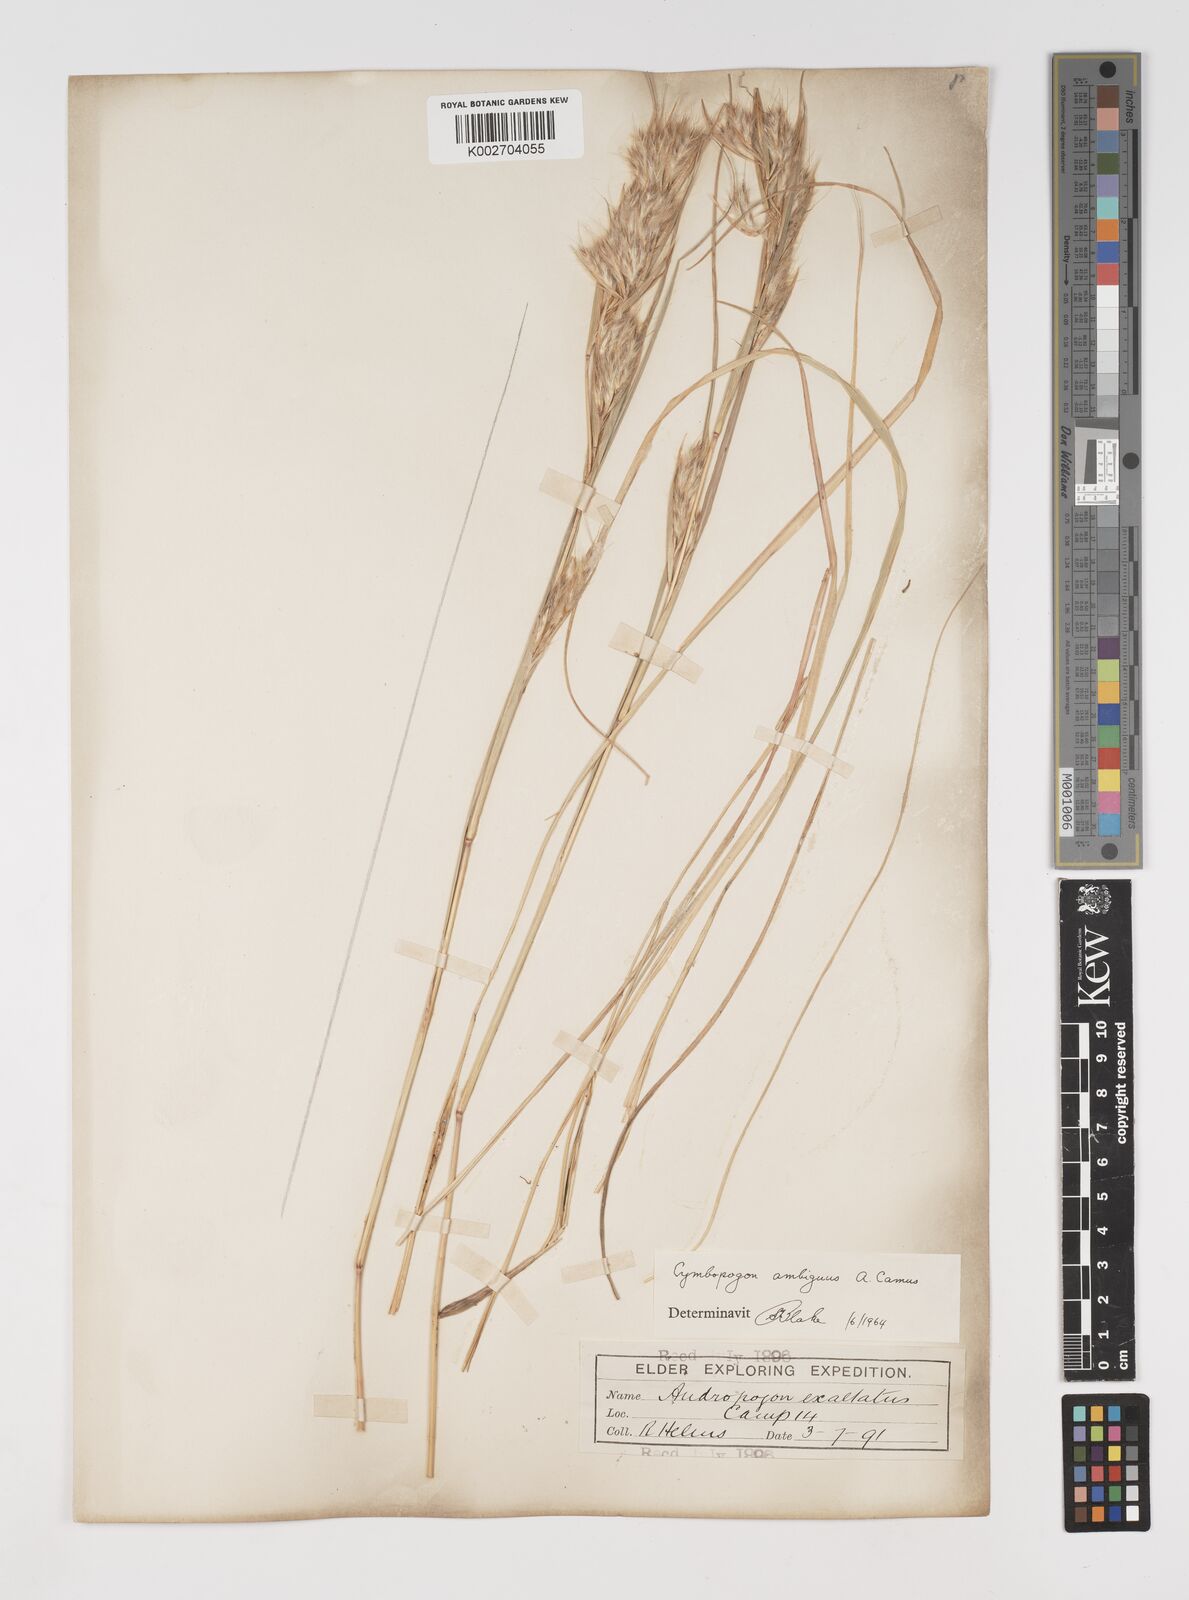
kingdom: Plantae
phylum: Tracheophyta
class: Liliopsida
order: Poales
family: Poaceae
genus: Cymbopogon
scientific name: Cymbopogon ambiguus
